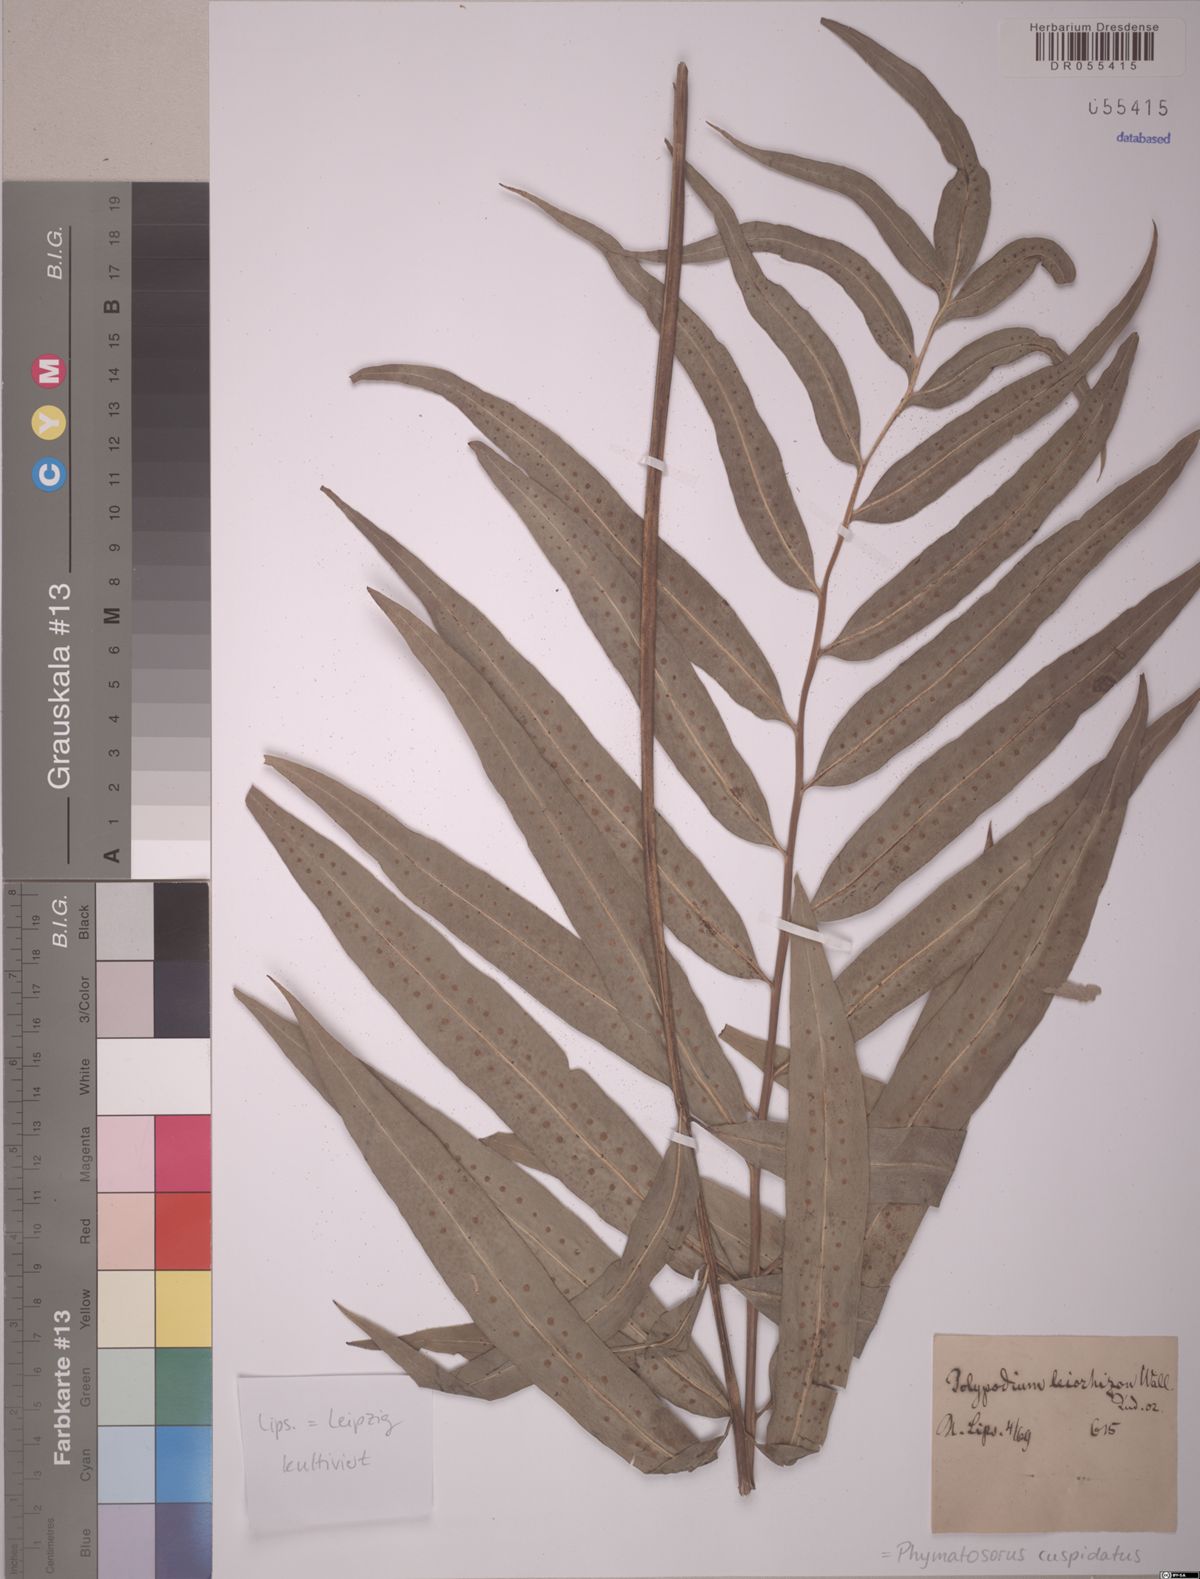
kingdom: Plantae
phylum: Tracheophyta
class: Polypodiopsida
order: Polypodiales
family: Polypodiaceae
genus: Microsorum
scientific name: Microsorum cuspidatum
